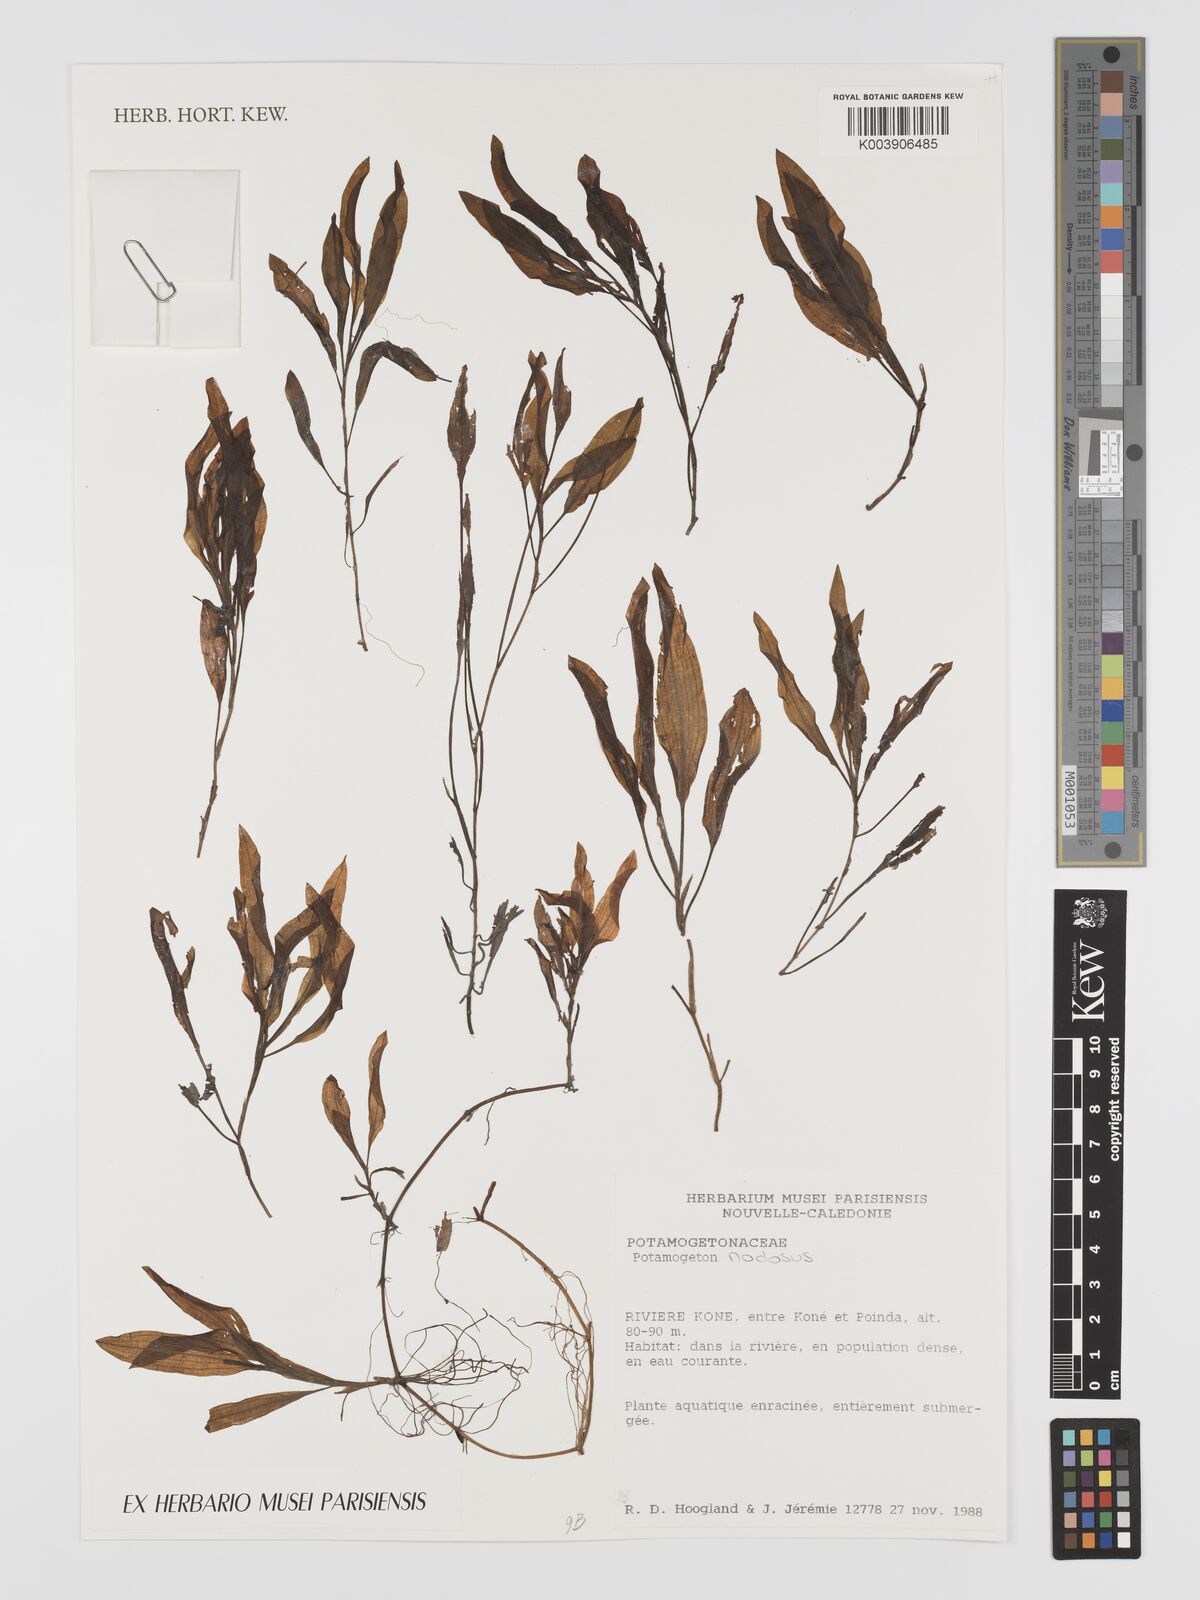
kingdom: Plantae
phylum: Tracheophyta
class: Liliopsida
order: Alismatales
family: Potamogetonaceae
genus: Potamogeton
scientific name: Potamogeton nodosus
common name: Loddon pondweed
